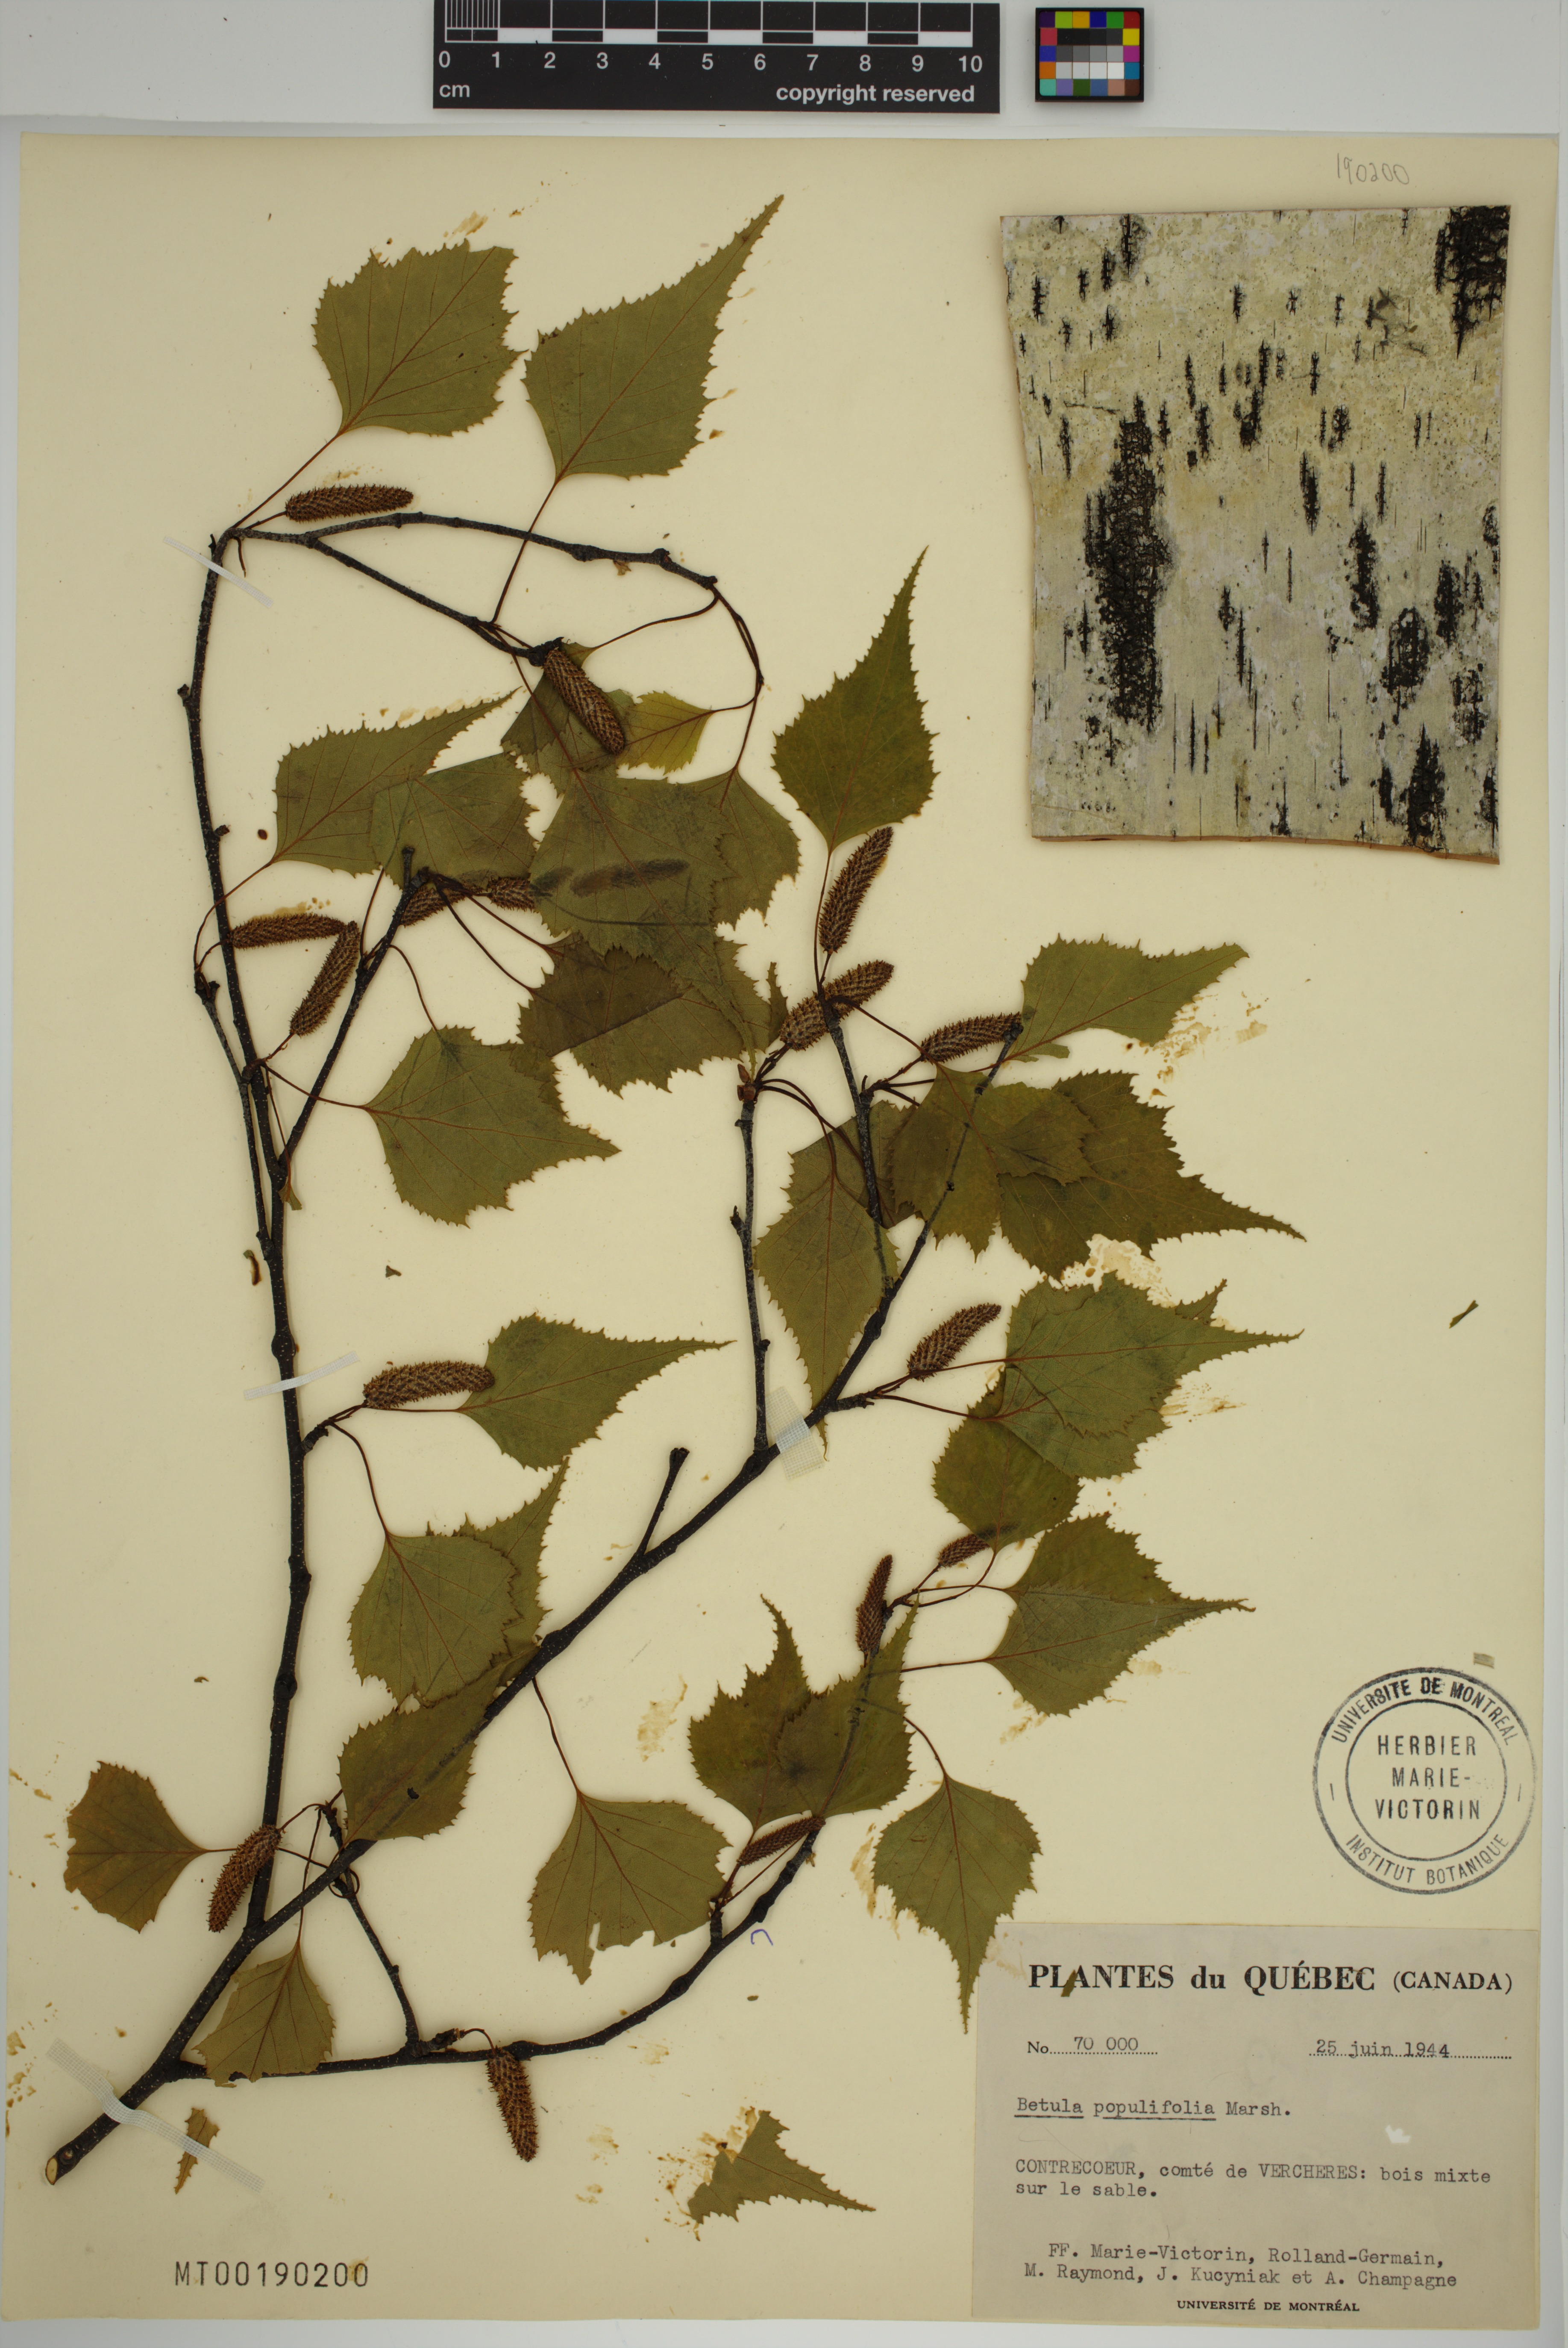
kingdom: Plantae
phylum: Tracheophyta
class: Magnoliopsida
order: Fagales
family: Betulaceae
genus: Betula
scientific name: Betula populifolia
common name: Fire birch
